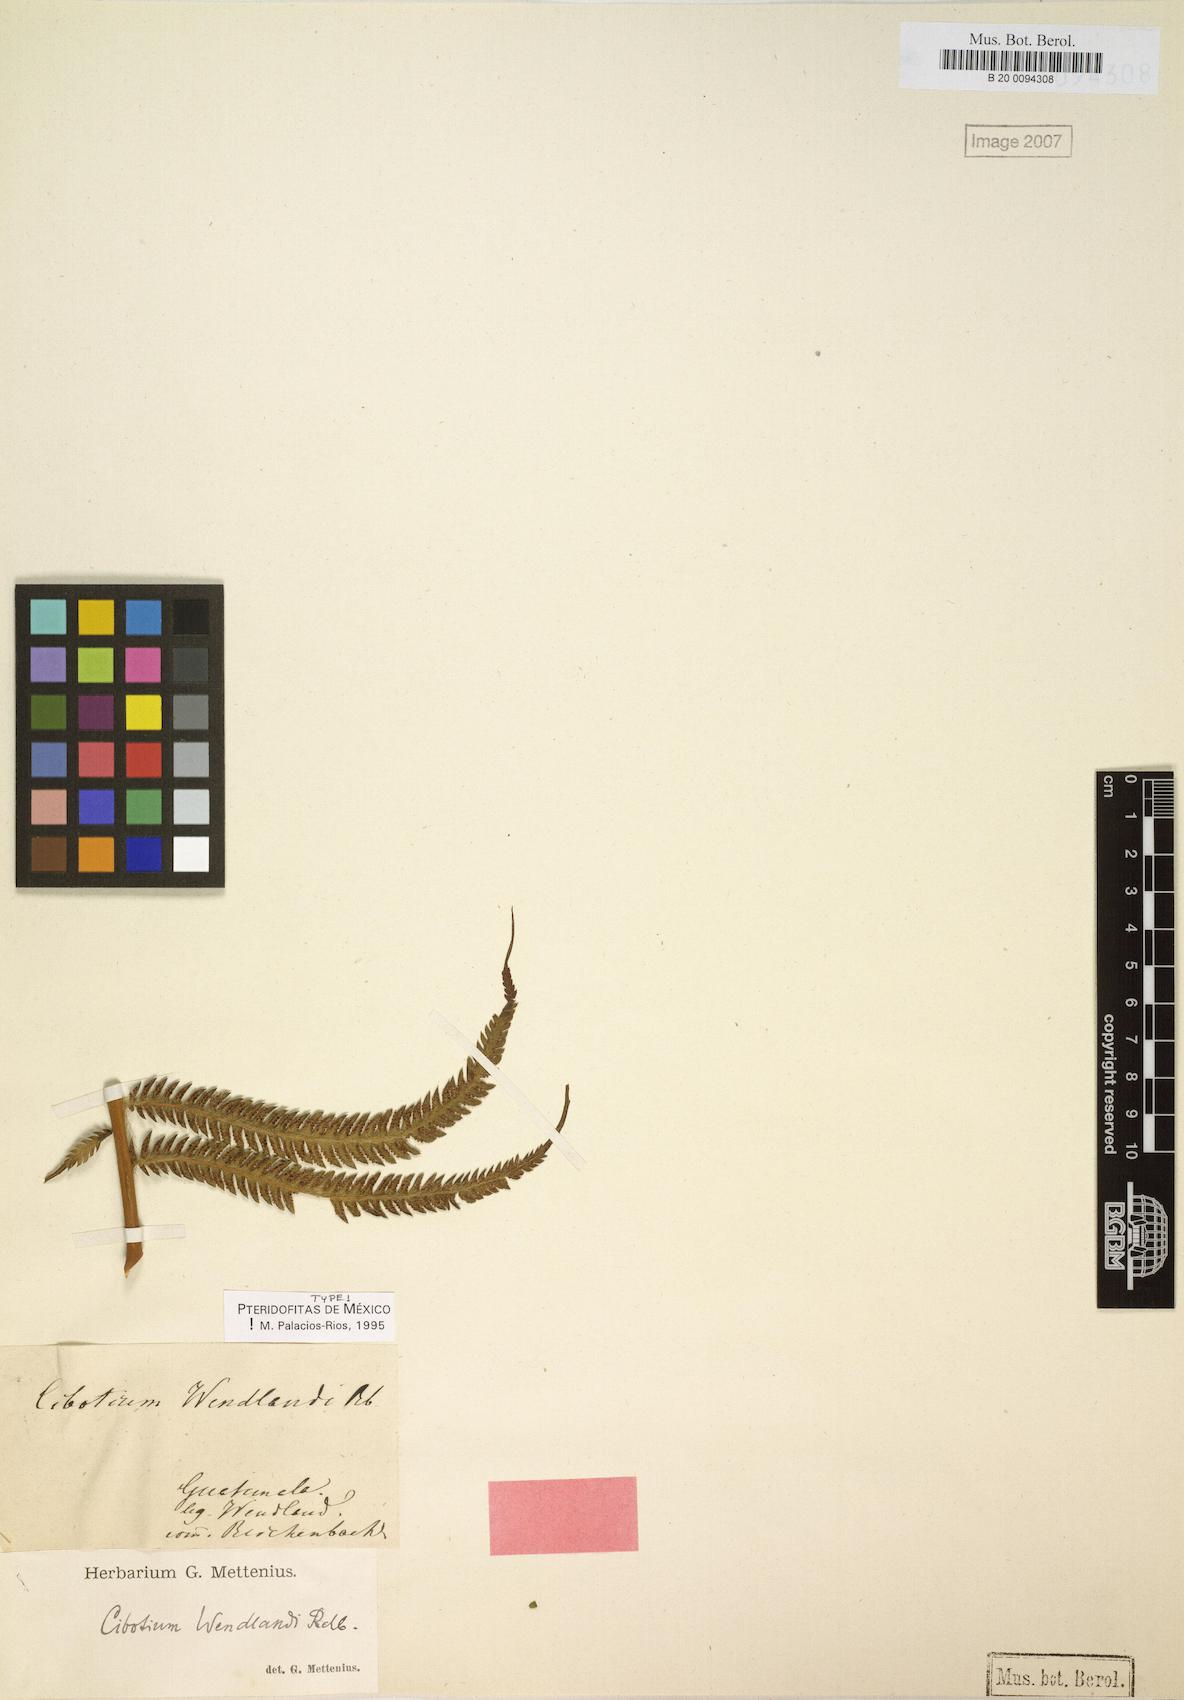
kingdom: Plantae
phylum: Tracheophyta
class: Polypodiopsida
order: Cyatheales
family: Cibotiaceae
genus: Cibotium
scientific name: Cibotium regale
